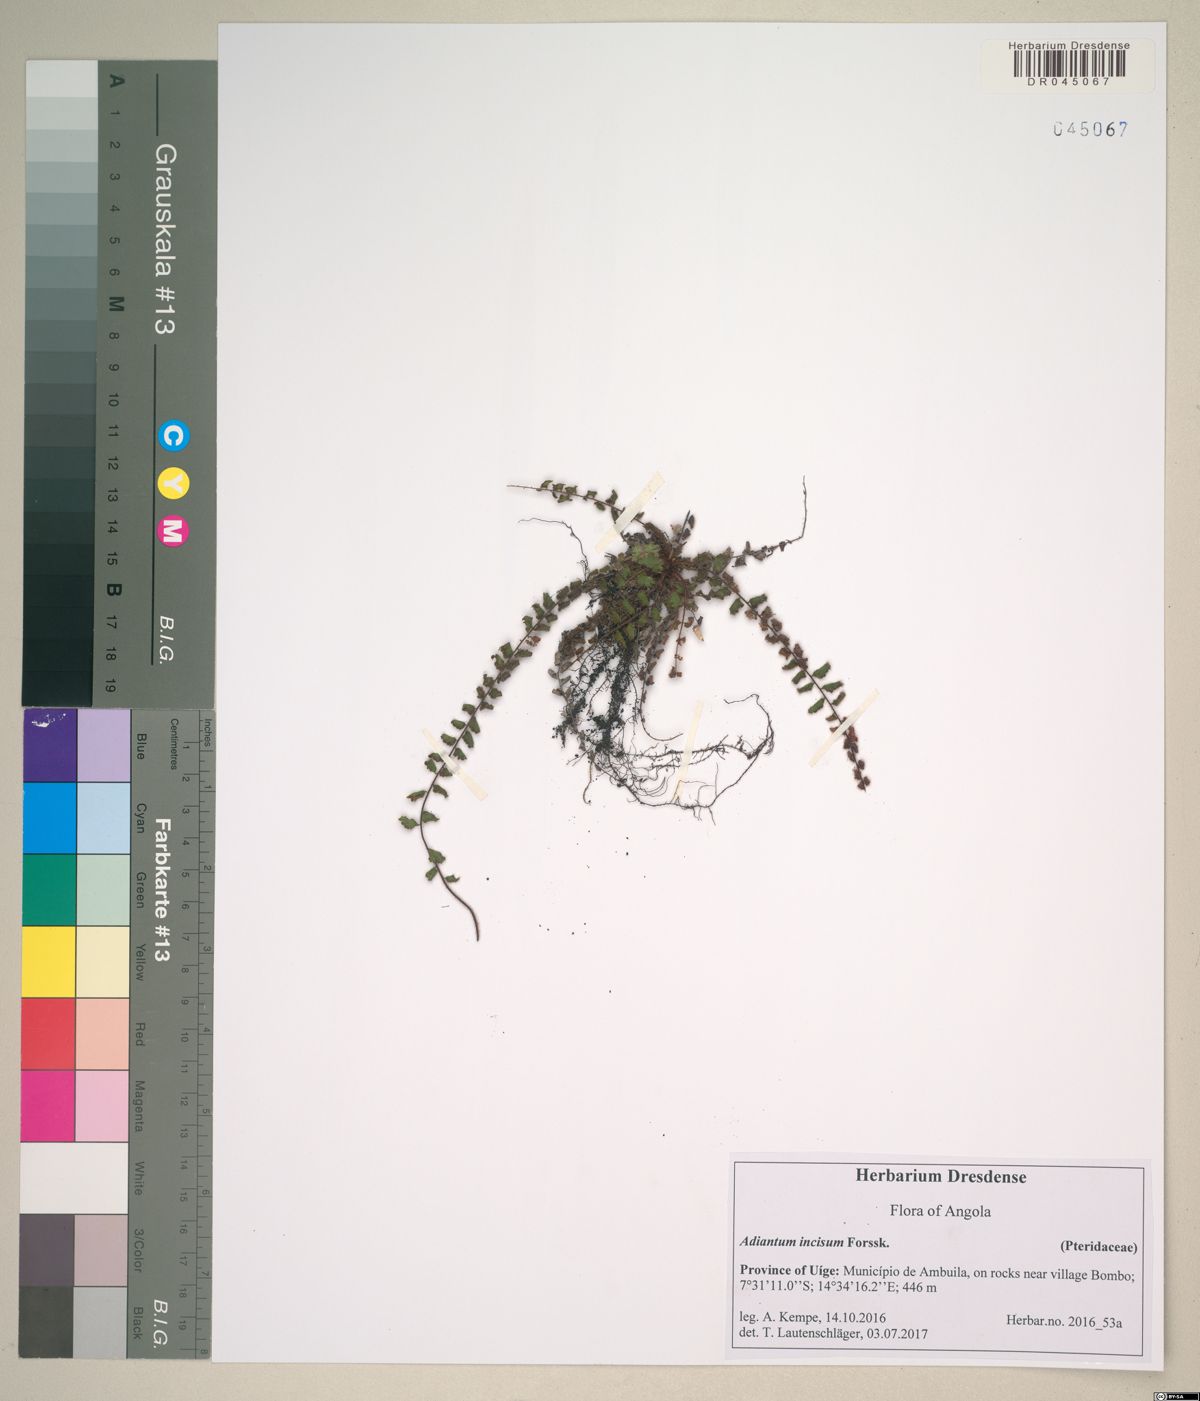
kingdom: Plantae
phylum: Tracheophyta
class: Polypodiopsida
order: Polypodiales
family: Pteridaceae
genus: Adiantum
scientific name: Adiantum incisum
